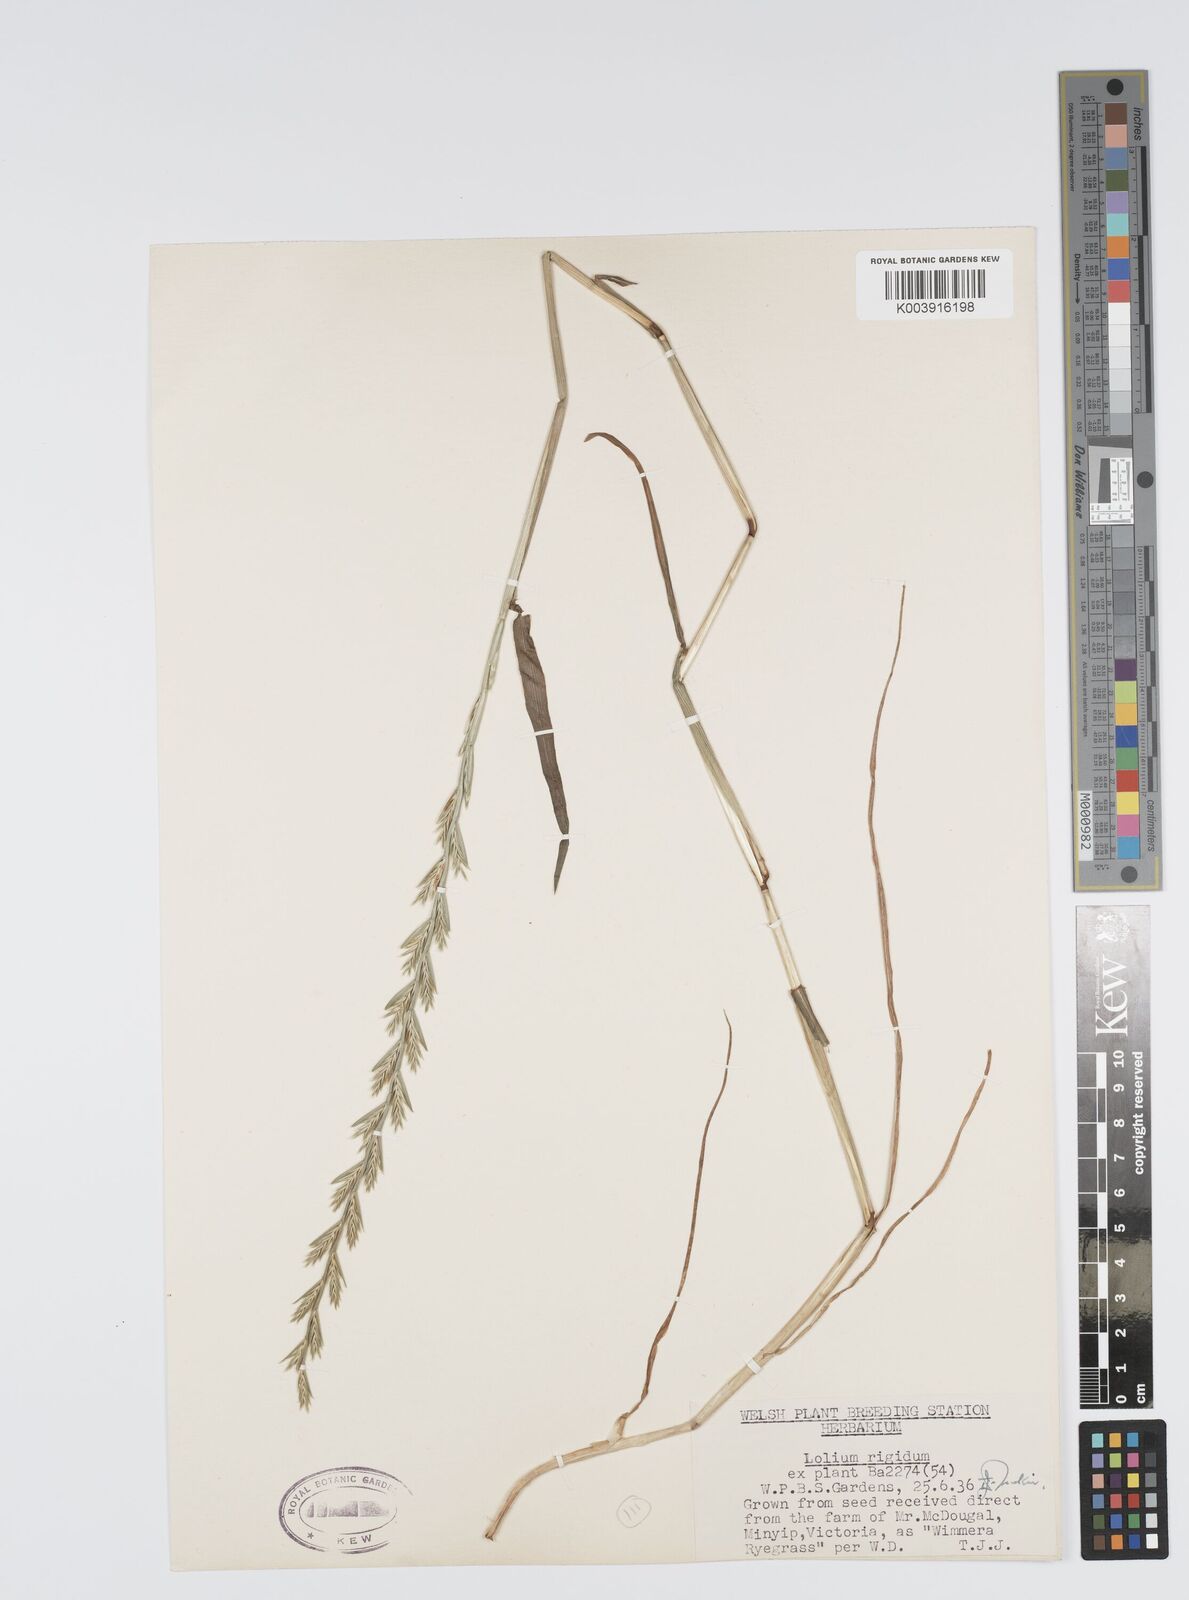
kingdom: Plantae
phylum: Tracheophyta
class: Liliopsida
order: Poales
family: Poaceae
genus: Lolium
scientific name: Lolium rigidum
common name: Wimmera ryegrass
